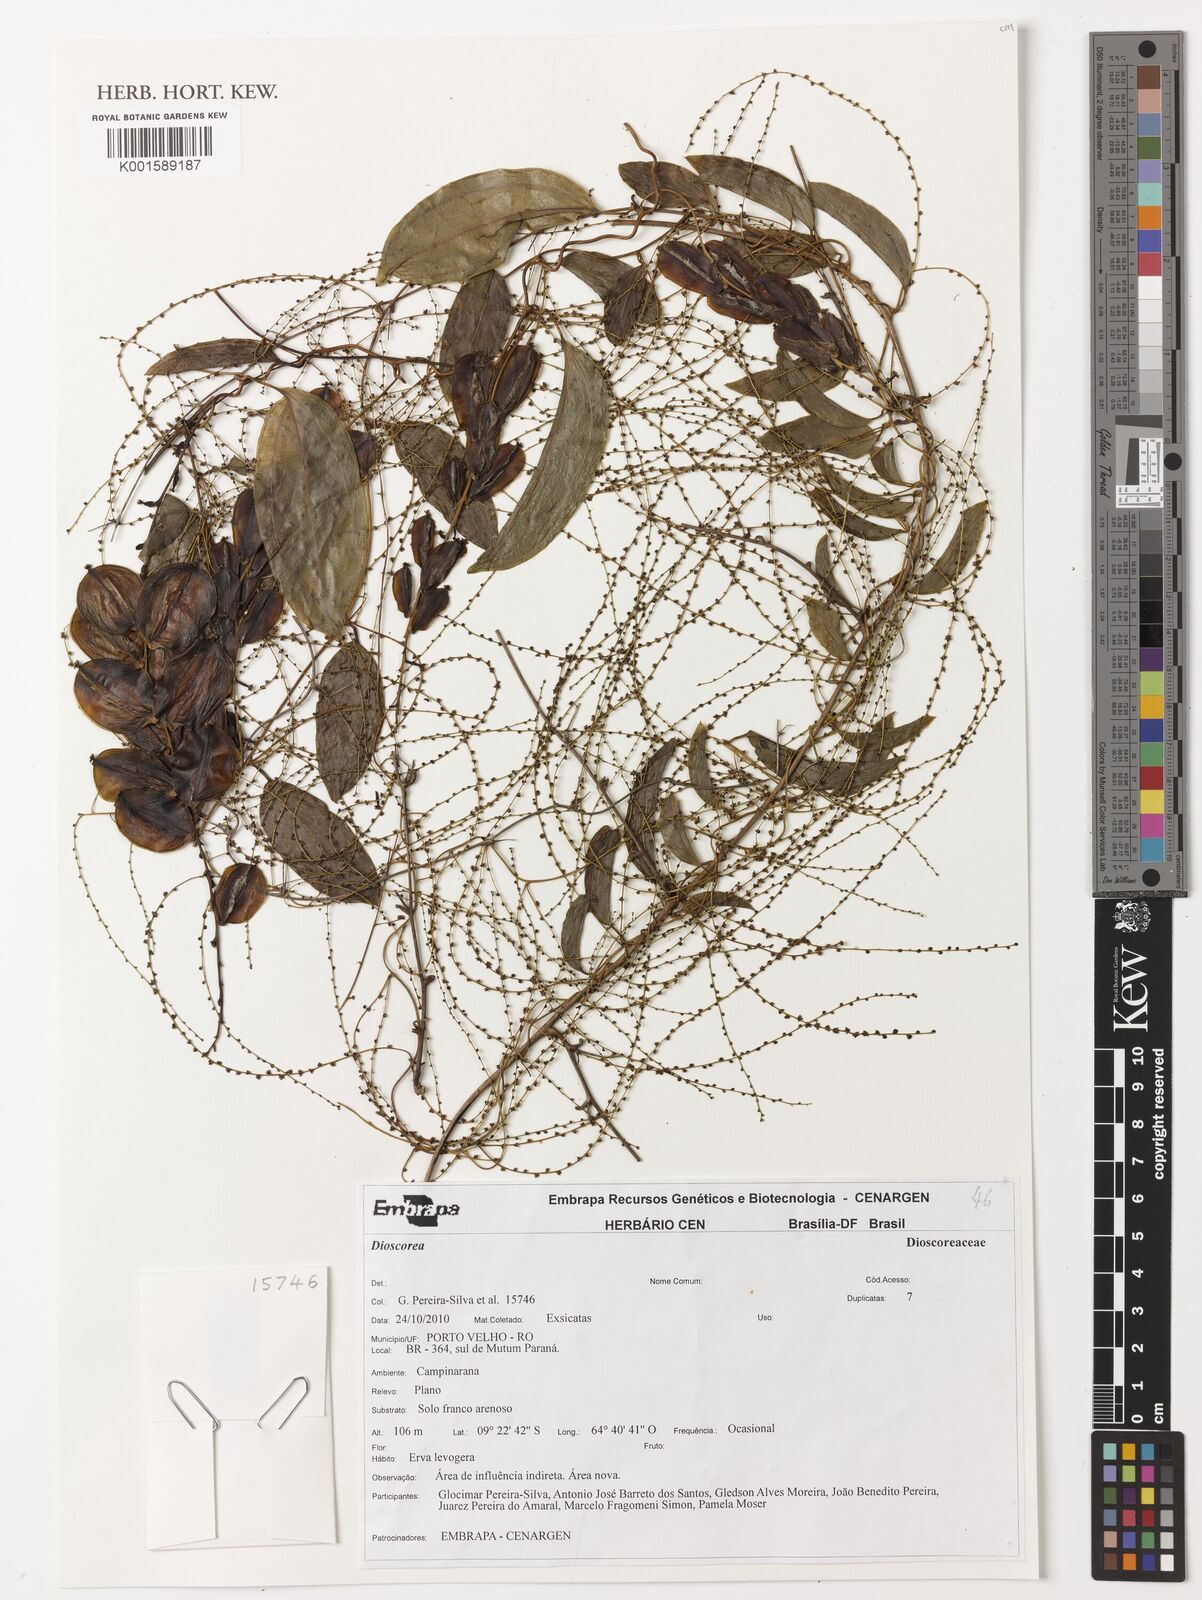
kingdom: Plantae
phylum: Tracheophyta
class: Liliopsida
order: Dioscoreales
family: Dioscoreaceae
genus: Dioscorea
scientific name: Dioscorea
